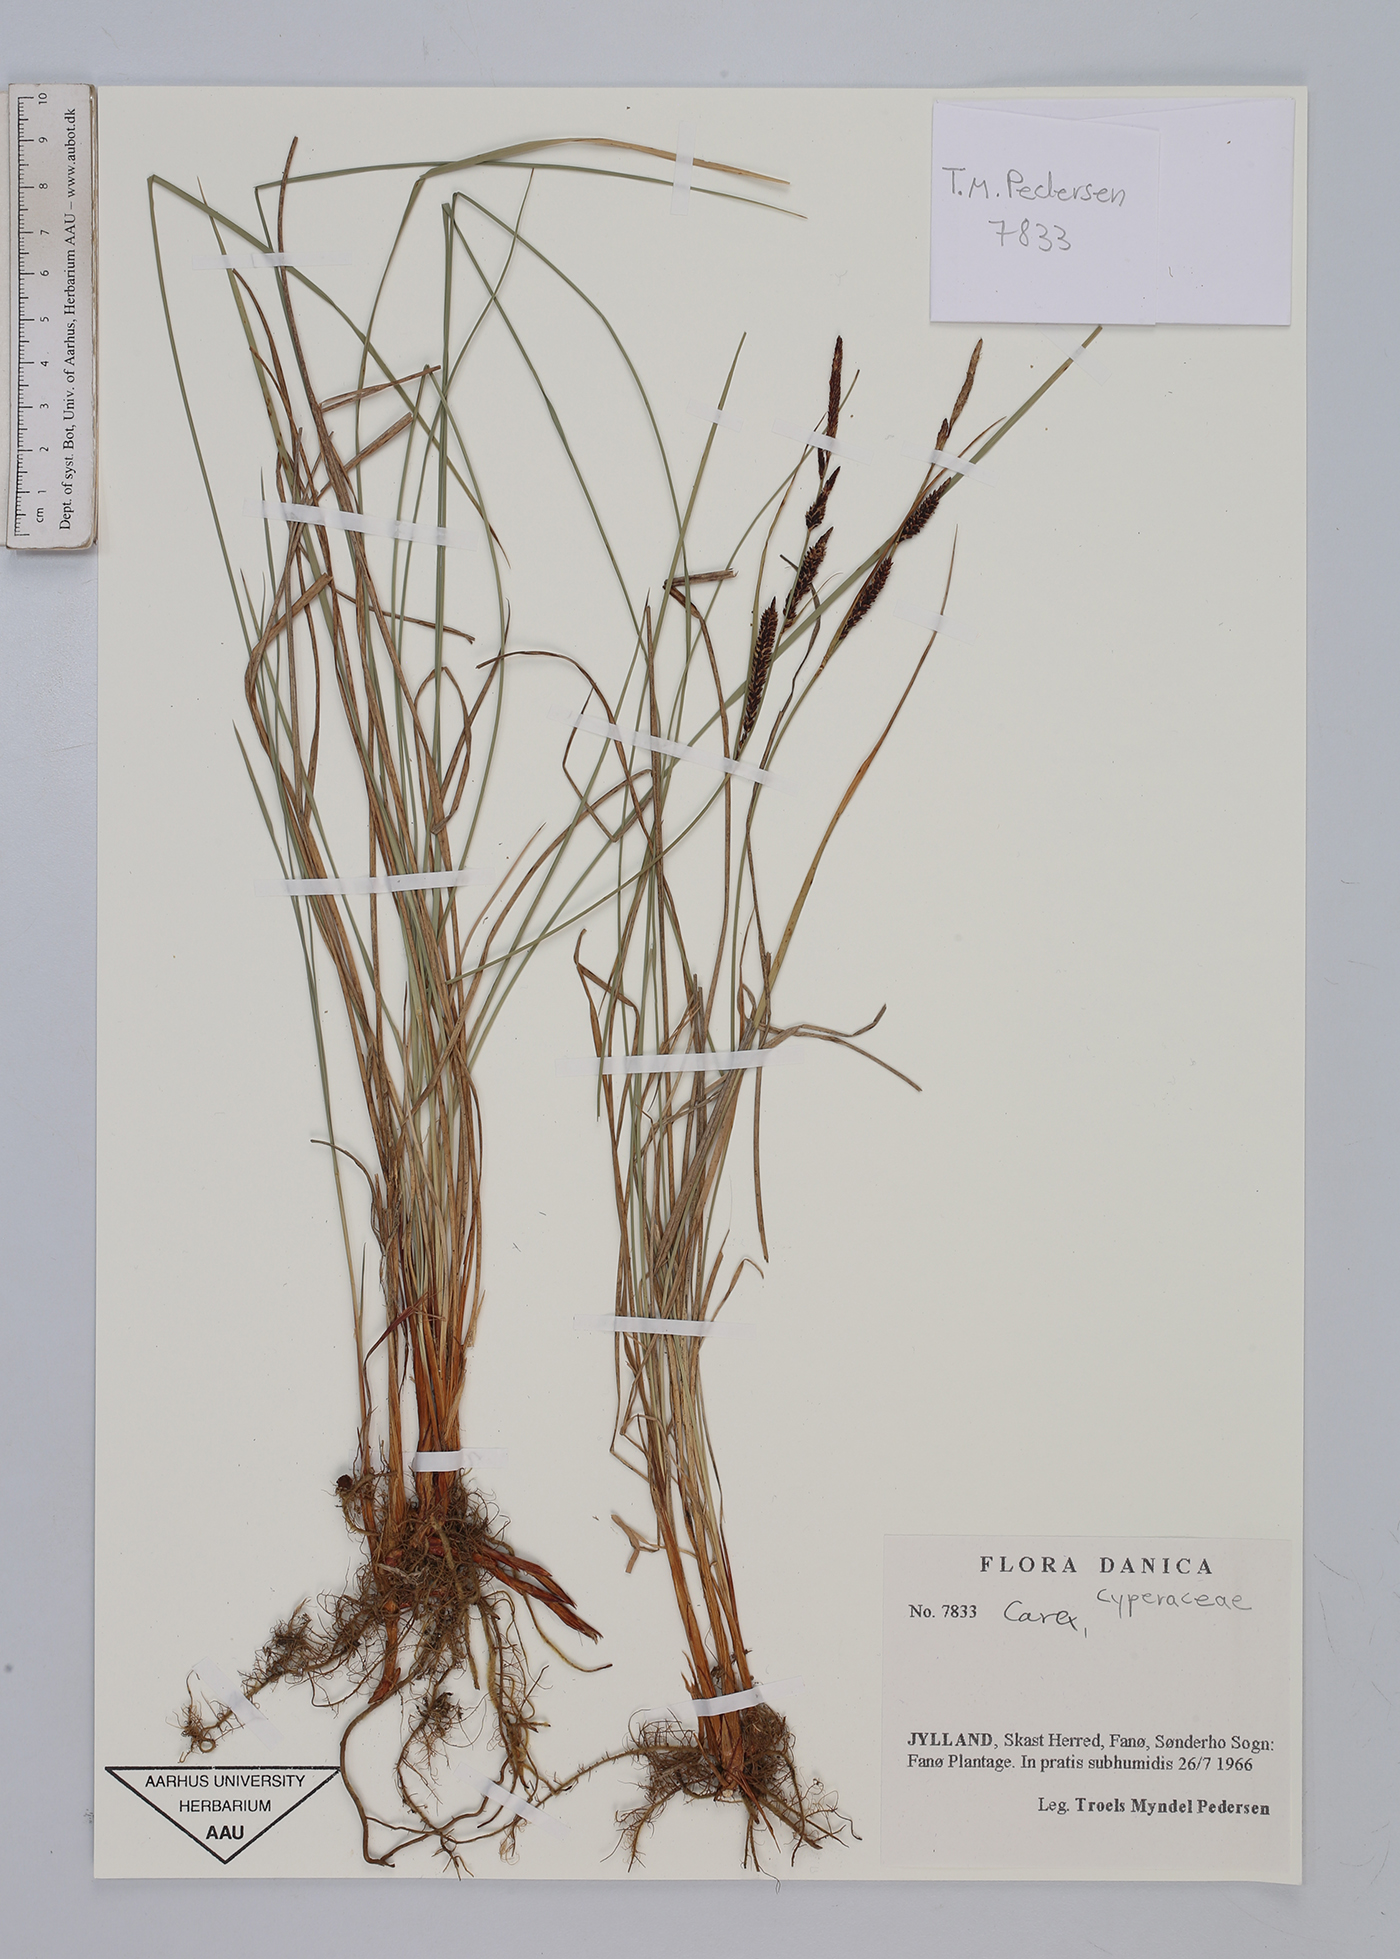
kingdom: Plantae
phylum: Tracheophyta
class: Liliopsida
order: Poales
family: Cyperaceae
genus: Carex
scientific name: Carex
